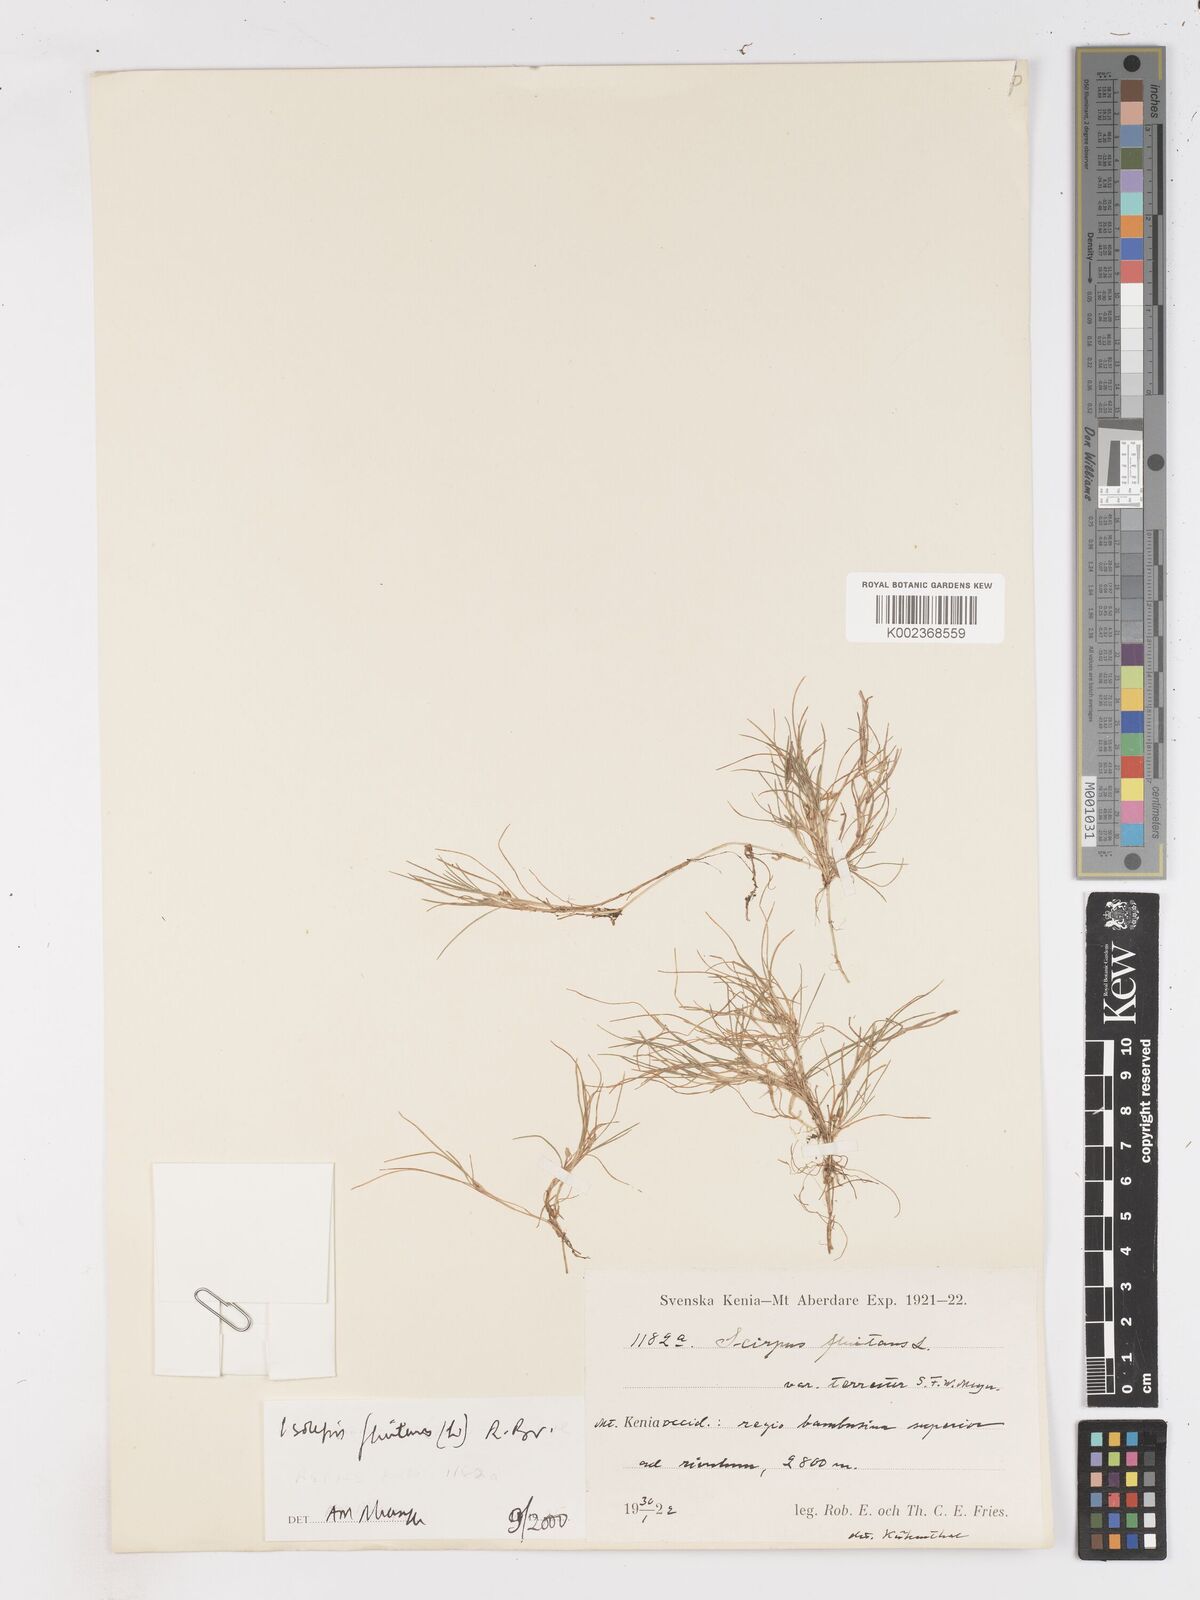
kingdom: Plantae
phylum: Tracheophyta
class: Liliopsida
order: Poales
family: Cyperaceae
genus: Isolepis
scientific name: Isolepis fluitans
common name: Floating club-rush
